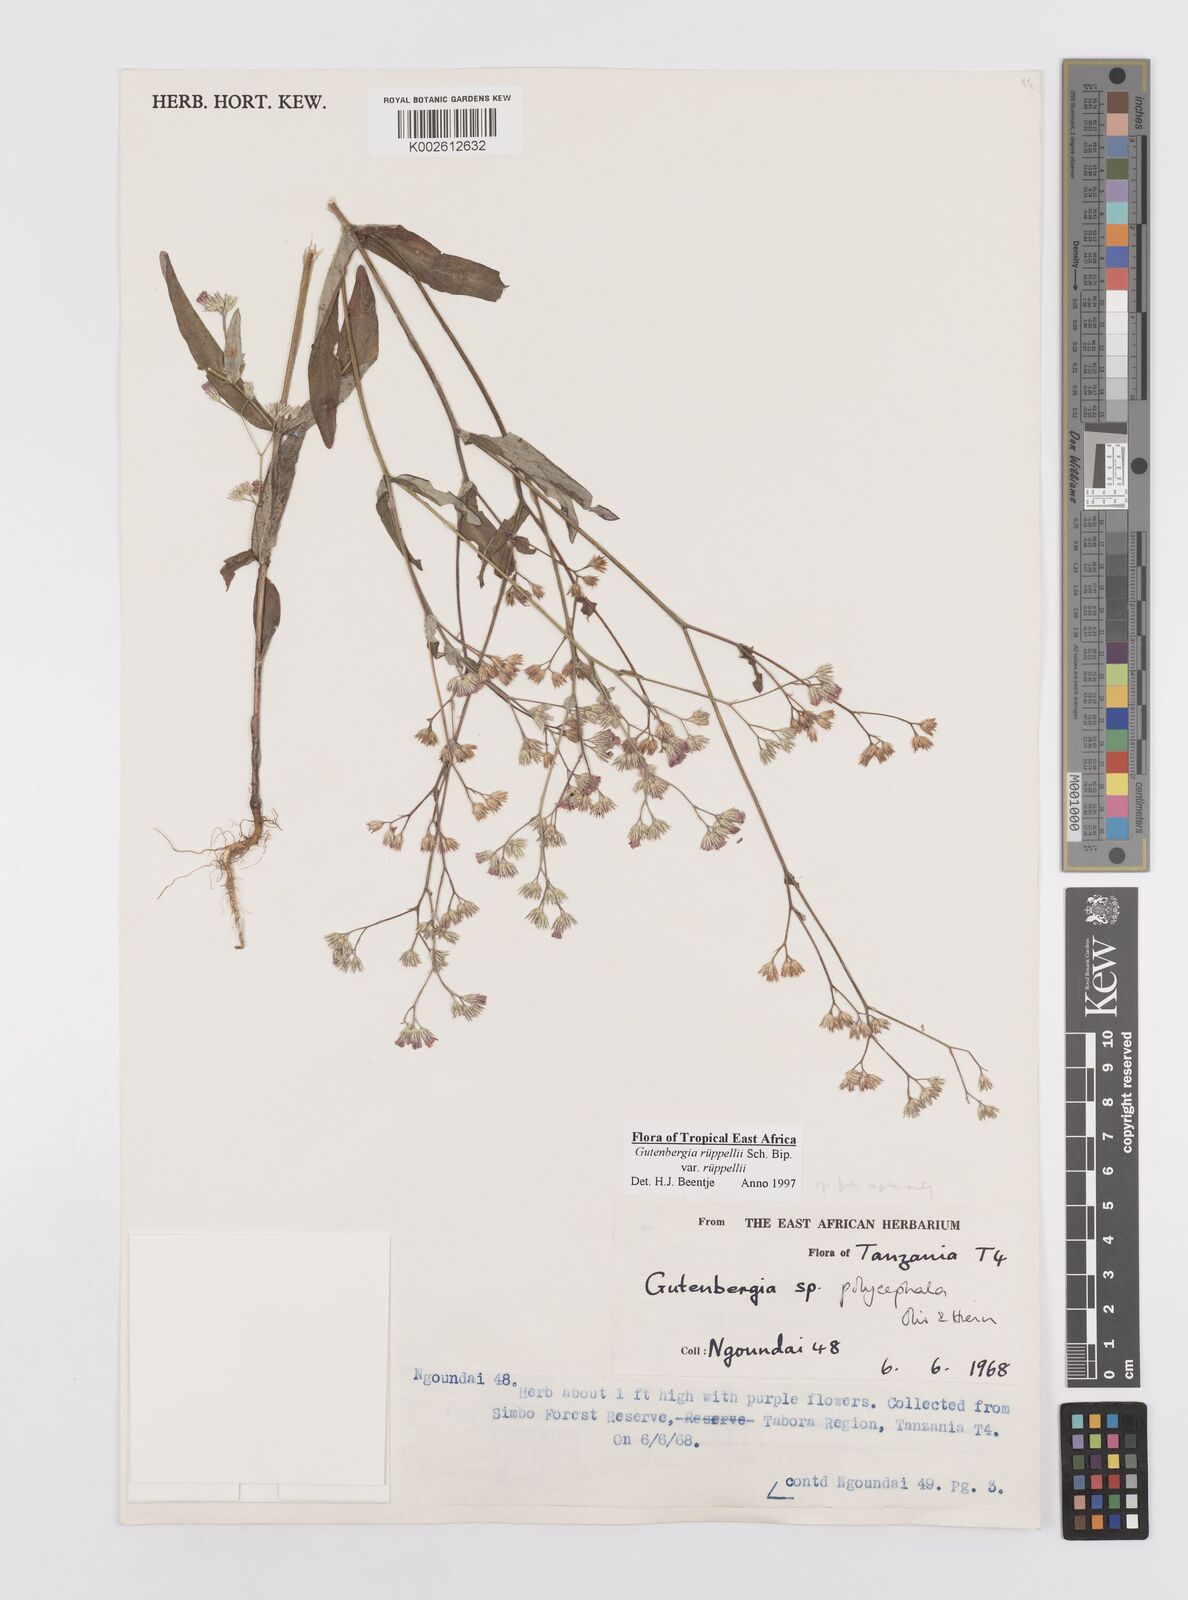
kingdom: Plantae
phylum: Tracheophyta
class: Magnoliopsida
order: Asterales
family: Asteraceae
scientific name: Asteraceae
